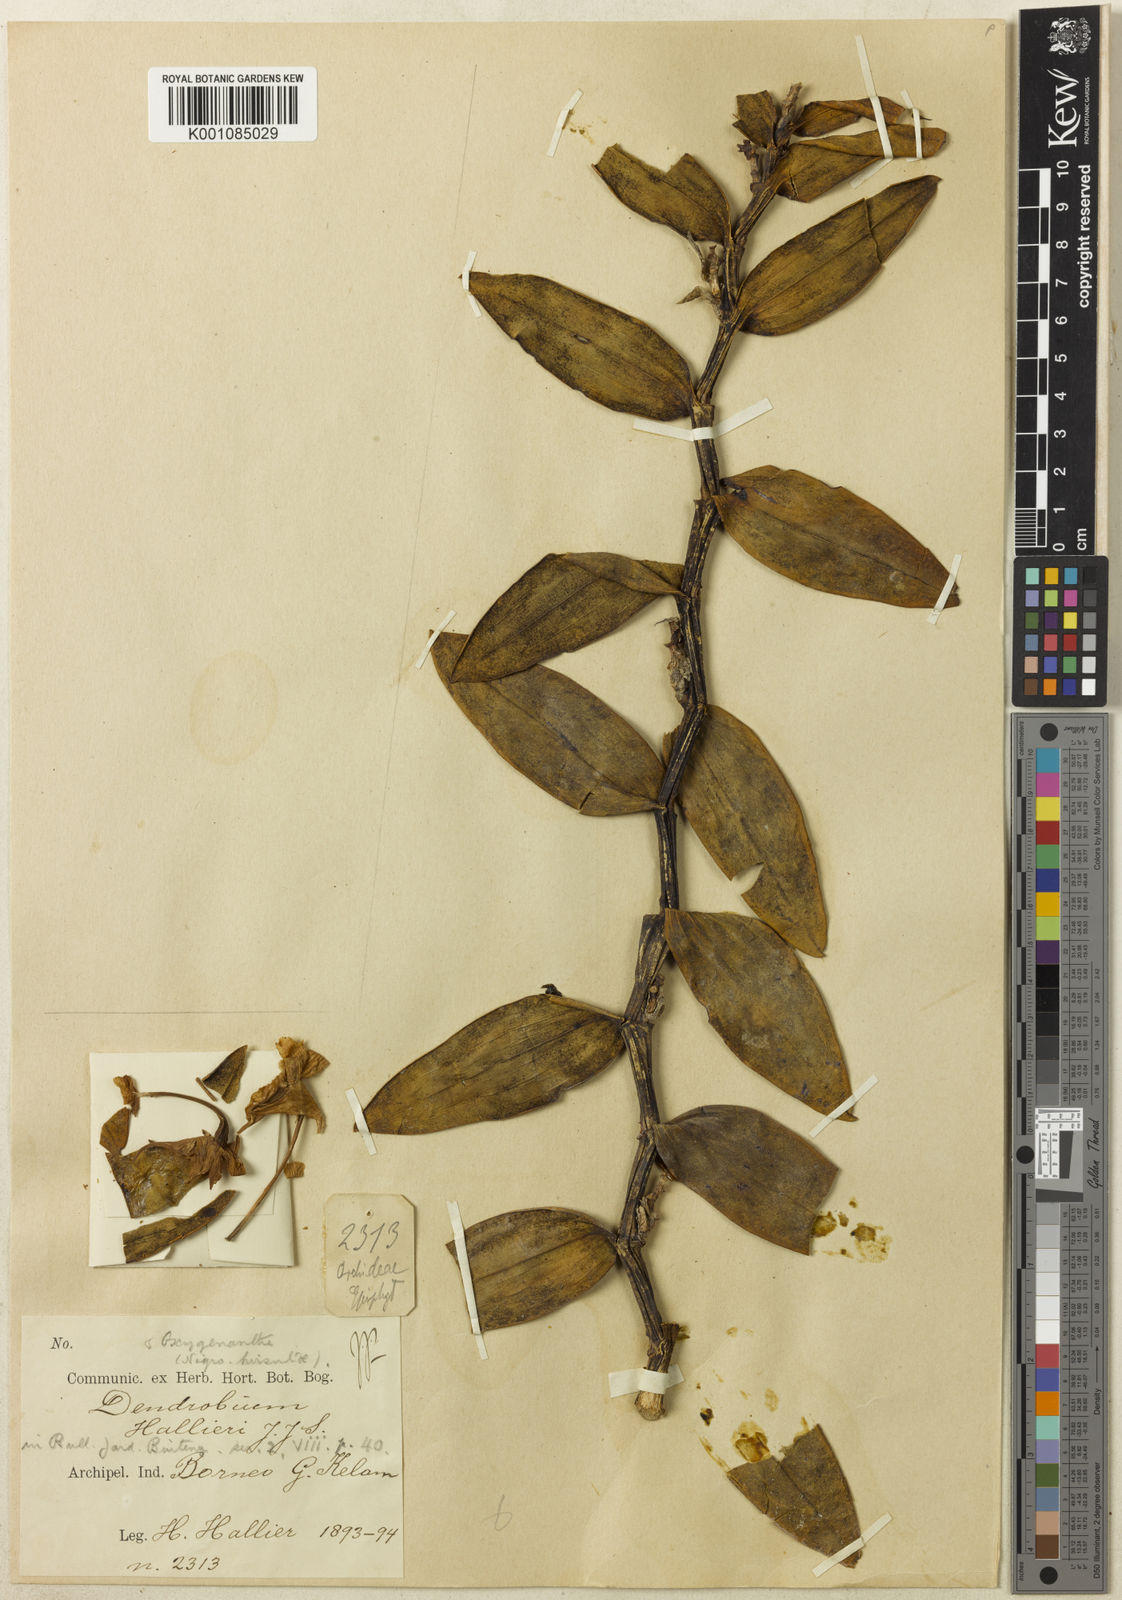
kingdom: Plantae
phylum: Tracheophyta
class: Liliopsida
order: Asparagales
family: Orchidaceae
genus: Dendrobium
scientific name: Dendrobium bostrychodes
